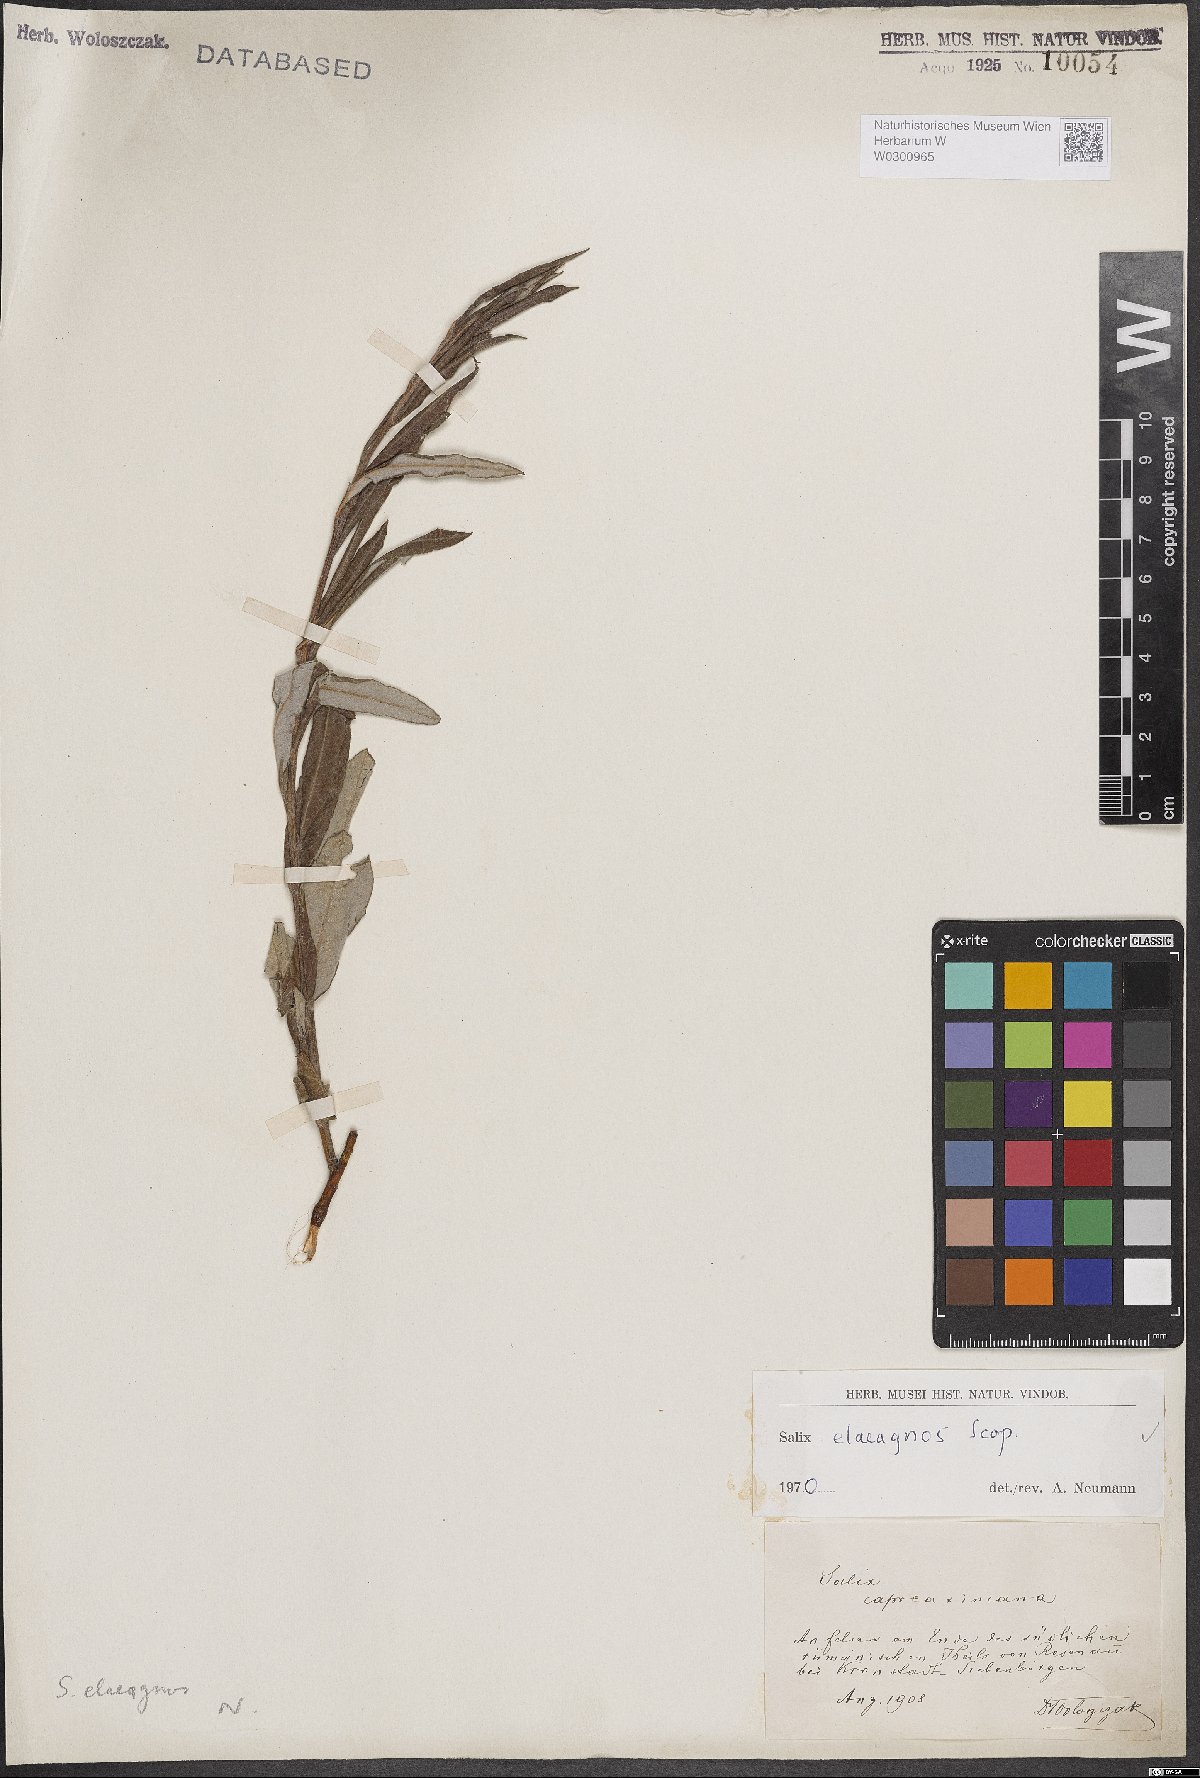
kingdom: Plantae
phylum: Tracheophyta
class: Magnoliopsida
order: Malpighiales
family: Salicaceae
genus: Salix
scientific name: Salix eleagnos
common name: Elaeagnus willow
